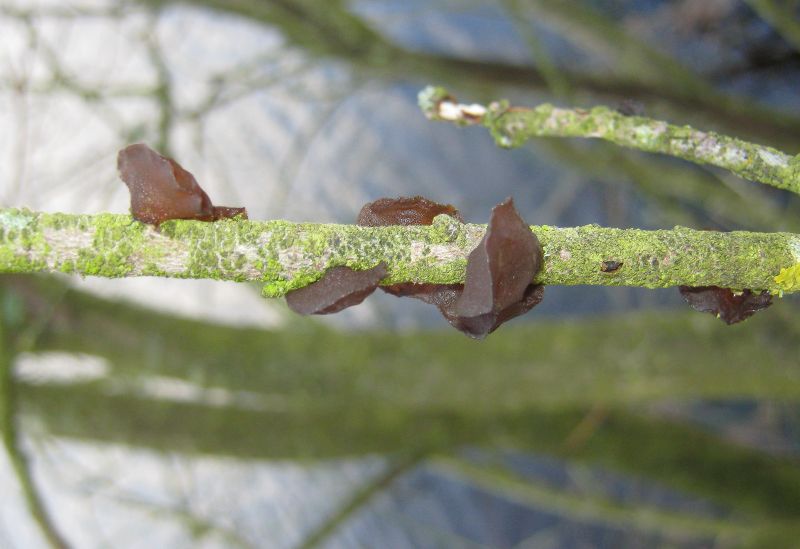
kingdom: Fungi
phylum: Basidiomycota
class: Agaricomycetes
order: Auriculariales
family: Auriculariaceae
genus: Exidia
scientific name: Exidia recisa
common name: pile-bævretop
